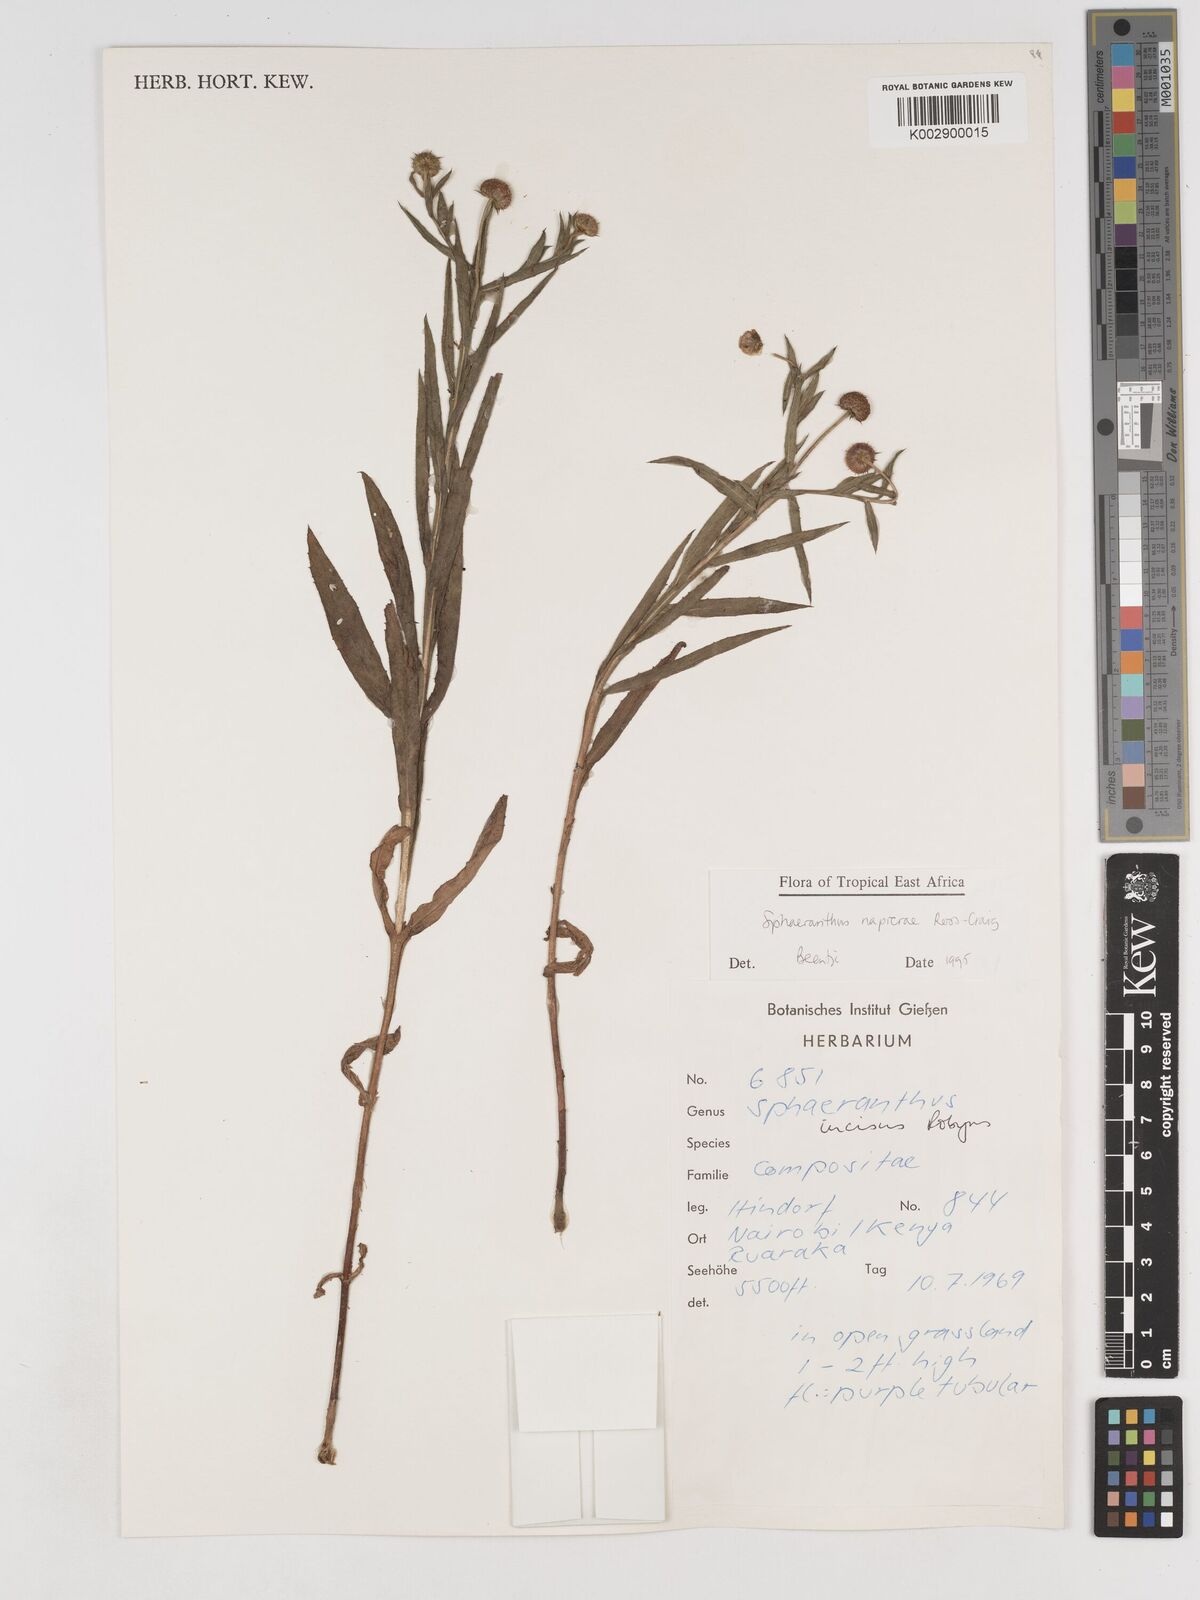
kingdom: Plantae
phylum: Tracheophyta
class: Magnoliopsida
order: Asterales
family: Asteraceae
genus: Sphaeranthus
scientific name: Sphaeranthus suaveolens
